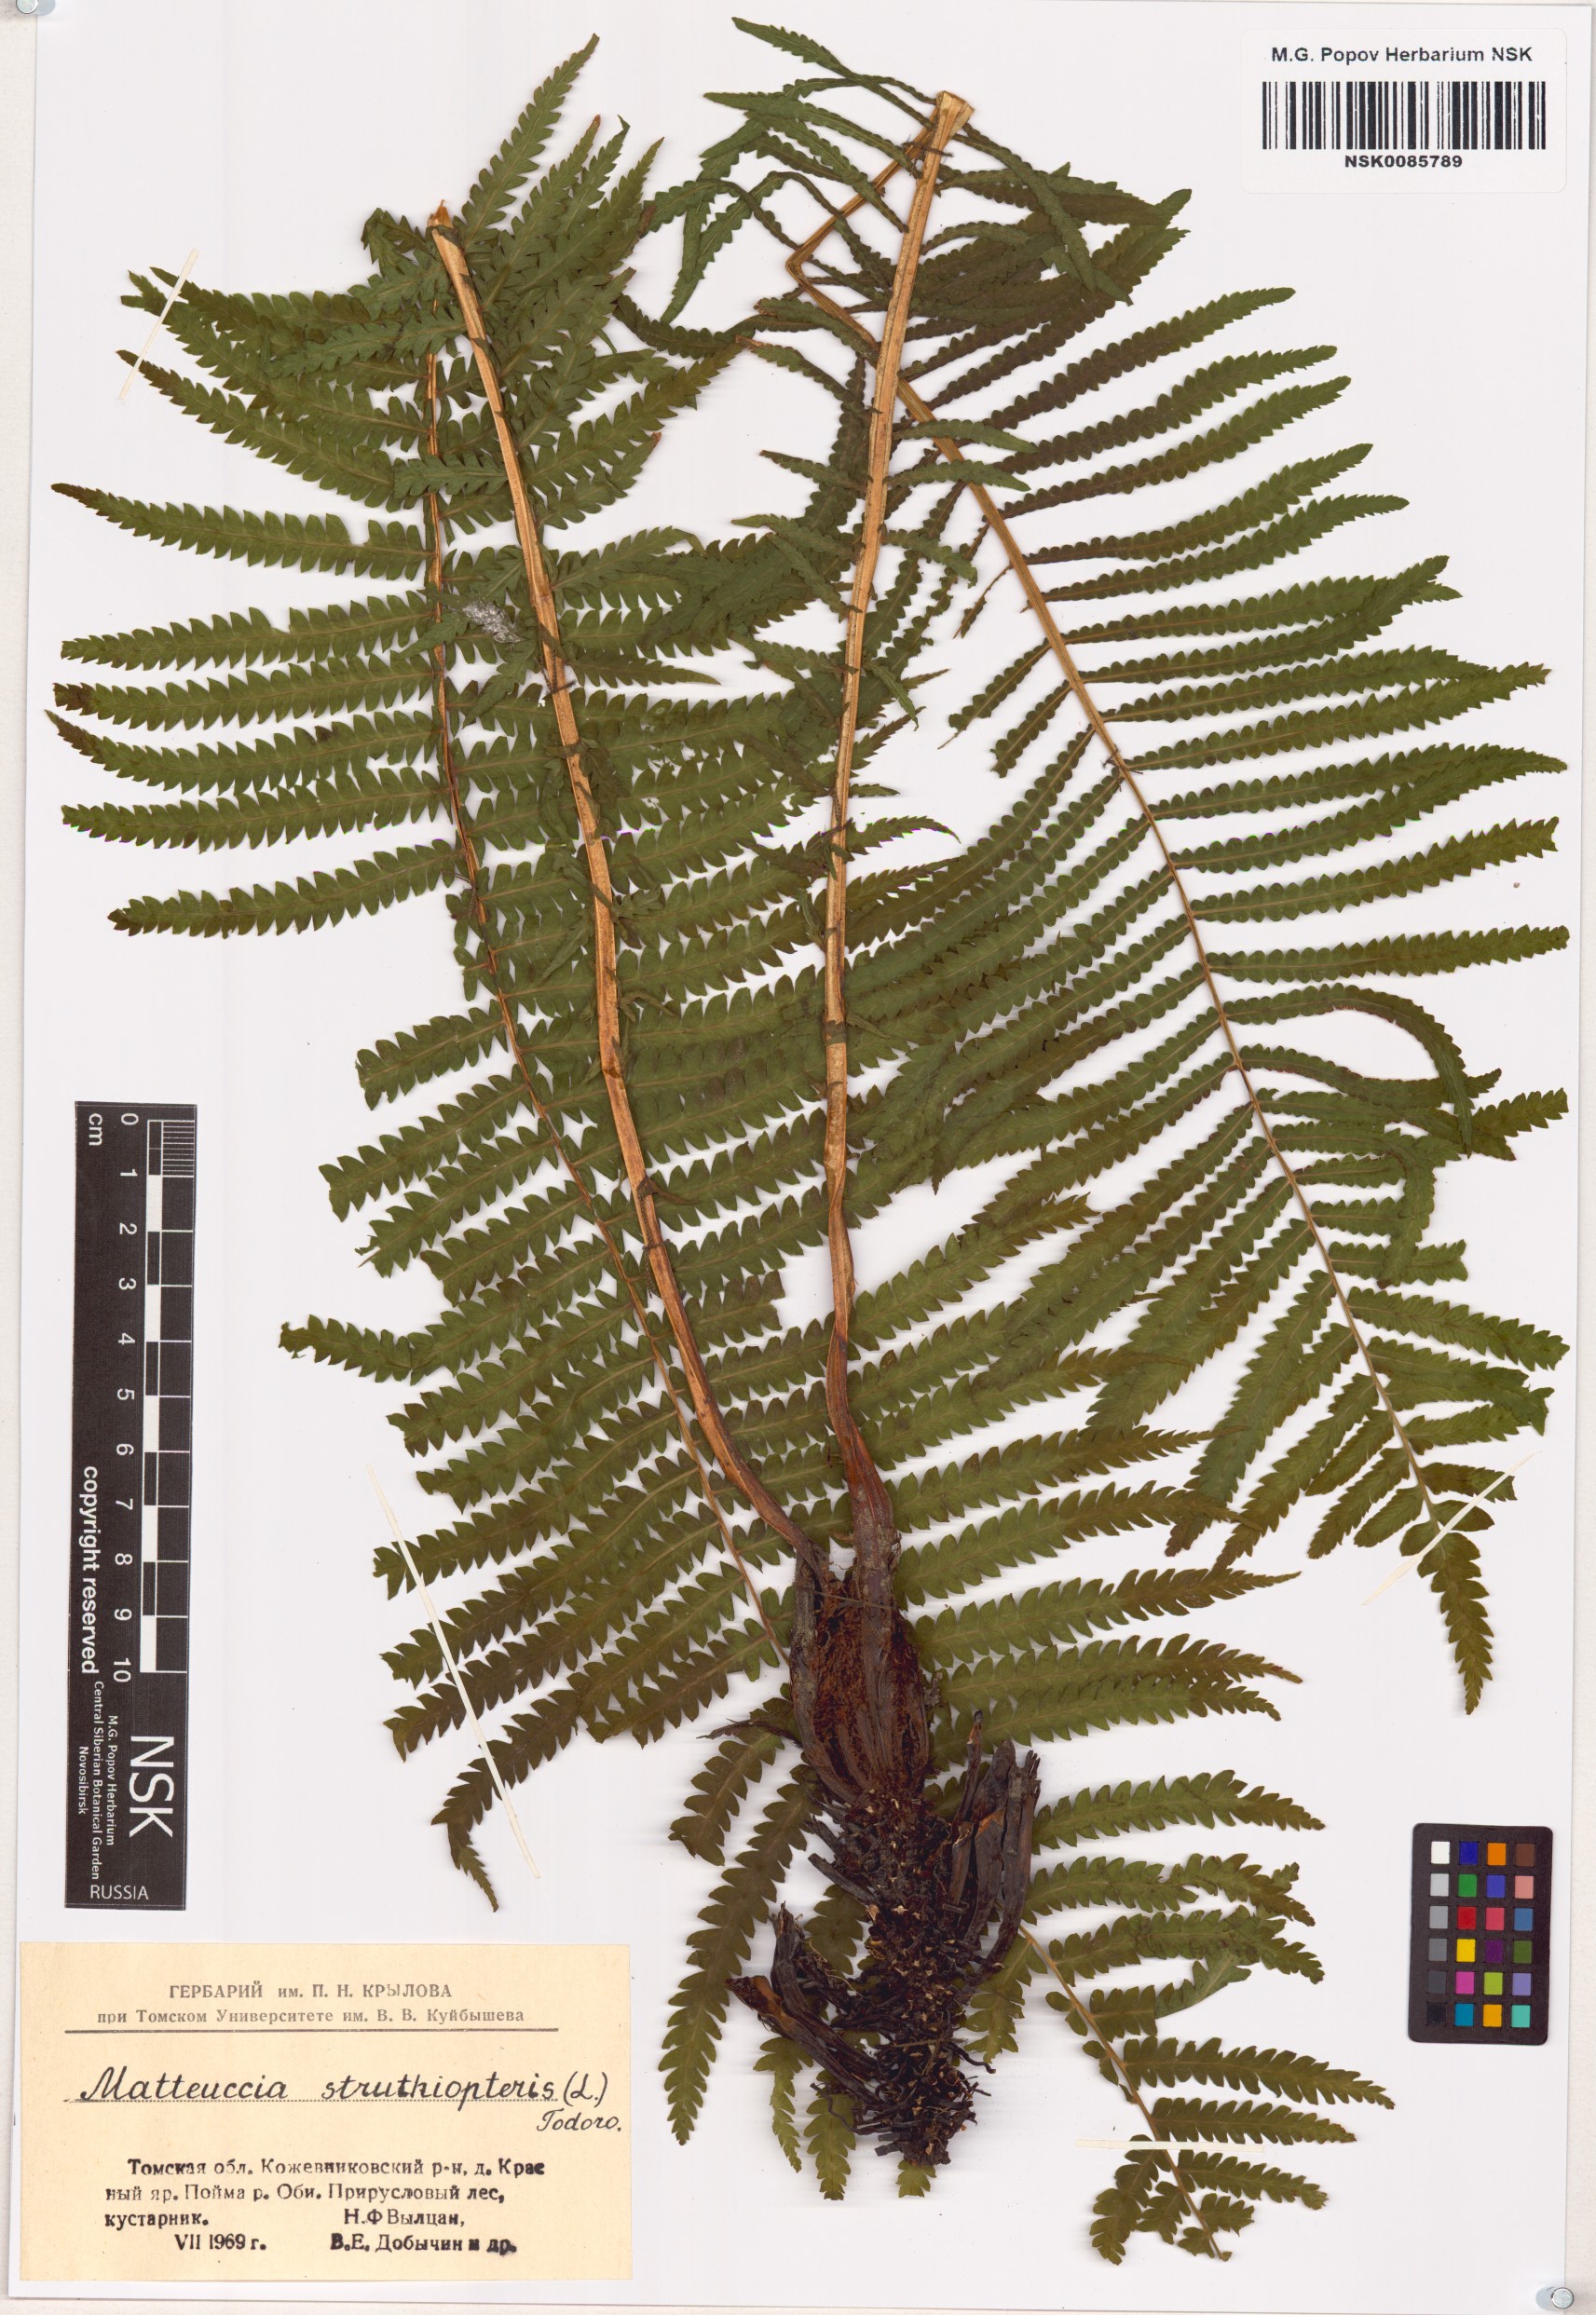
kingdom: Plantae
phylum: Tracheophyta
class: Polypodiopsida
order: Polypodiales
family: Onocleaceae
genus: Matteuccia
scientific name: Matteuccia struthiopteris
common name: Ostrich fern
